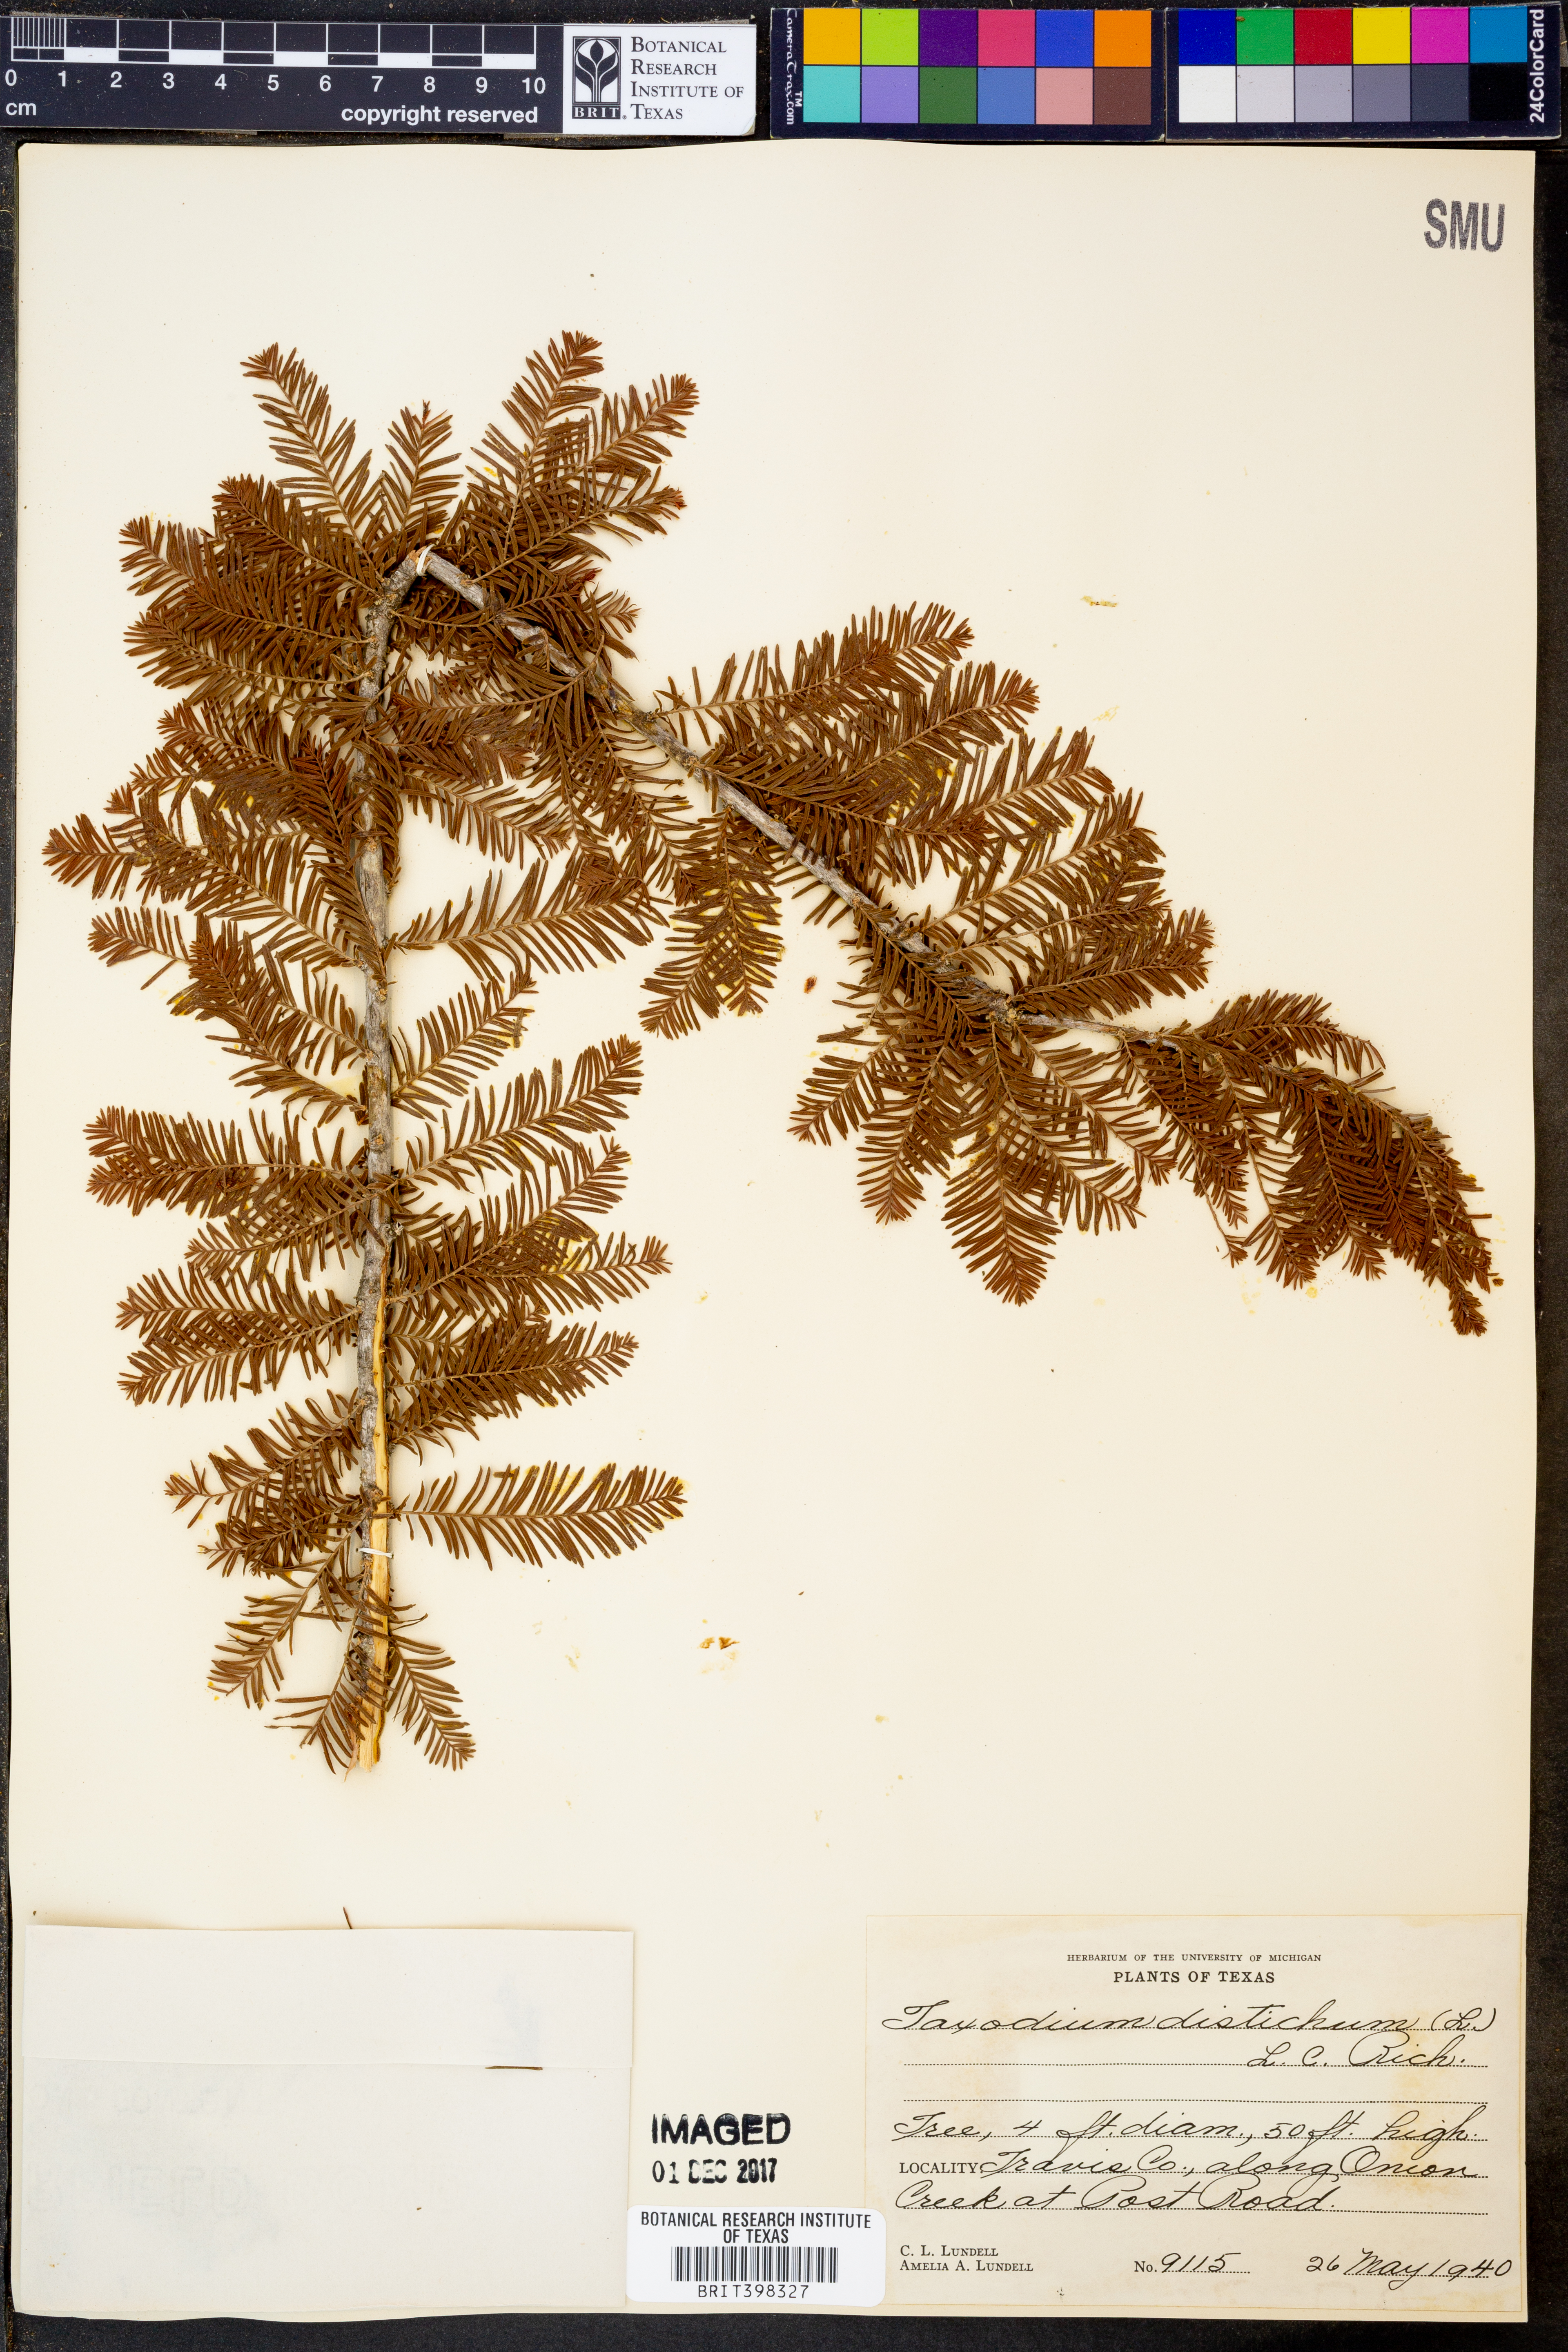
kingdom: Plantae
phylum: Tracheophyta
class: Pinopsida
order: Pinales
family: Cupressaceae
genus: Taxodium
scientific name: Taxodium distichum
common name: Bald cypress
